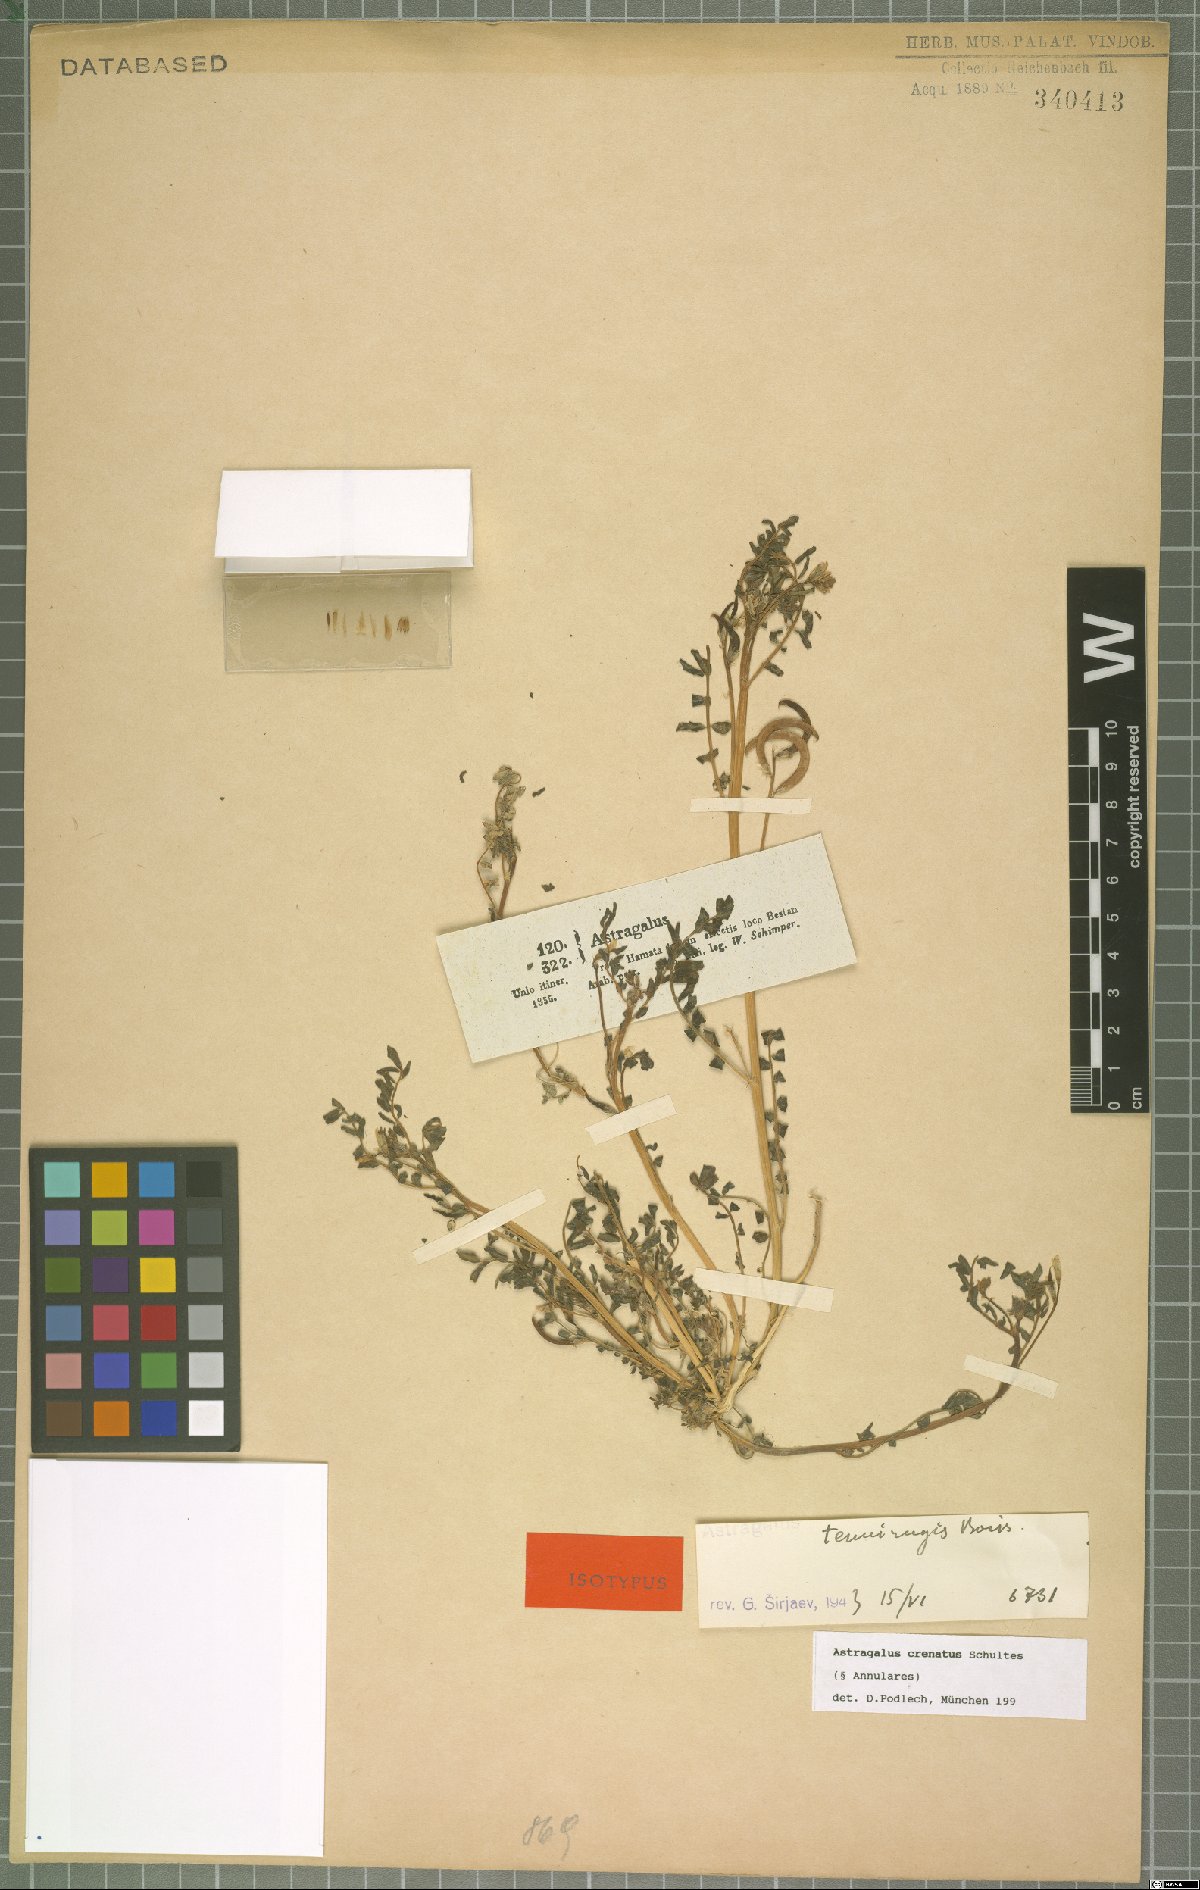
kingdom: Plantae
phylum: Tracheophyta
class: Magnoliopsida
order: Fabales
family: Fabaceae
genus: Astragalus
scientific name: Astragalus crenatus
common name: Milk vetch
